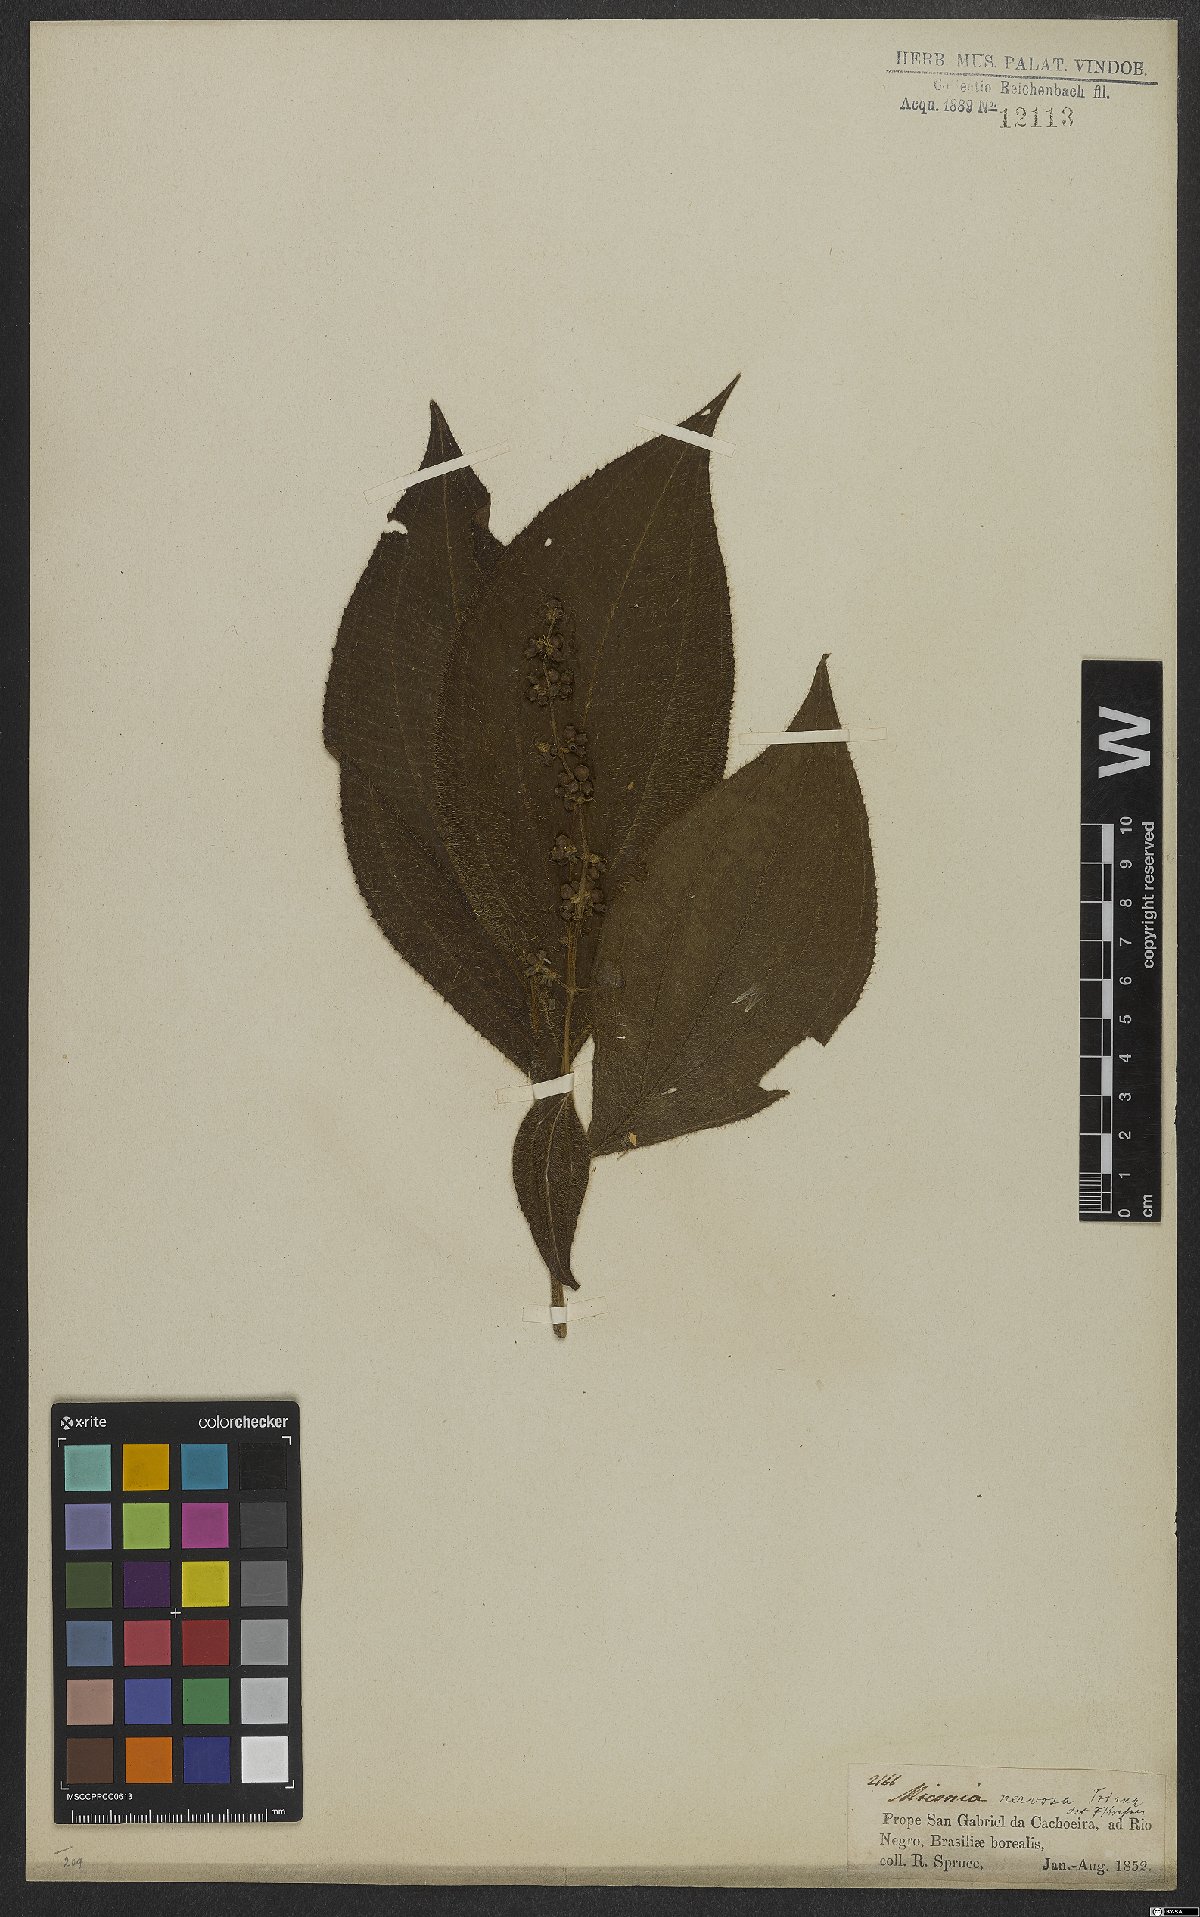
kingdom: Plantae
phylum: Tracheophyta
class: Magnoliopsida
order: Myrtales
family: Melastomataceae
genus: Miconia
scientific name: Miconia nervosa
